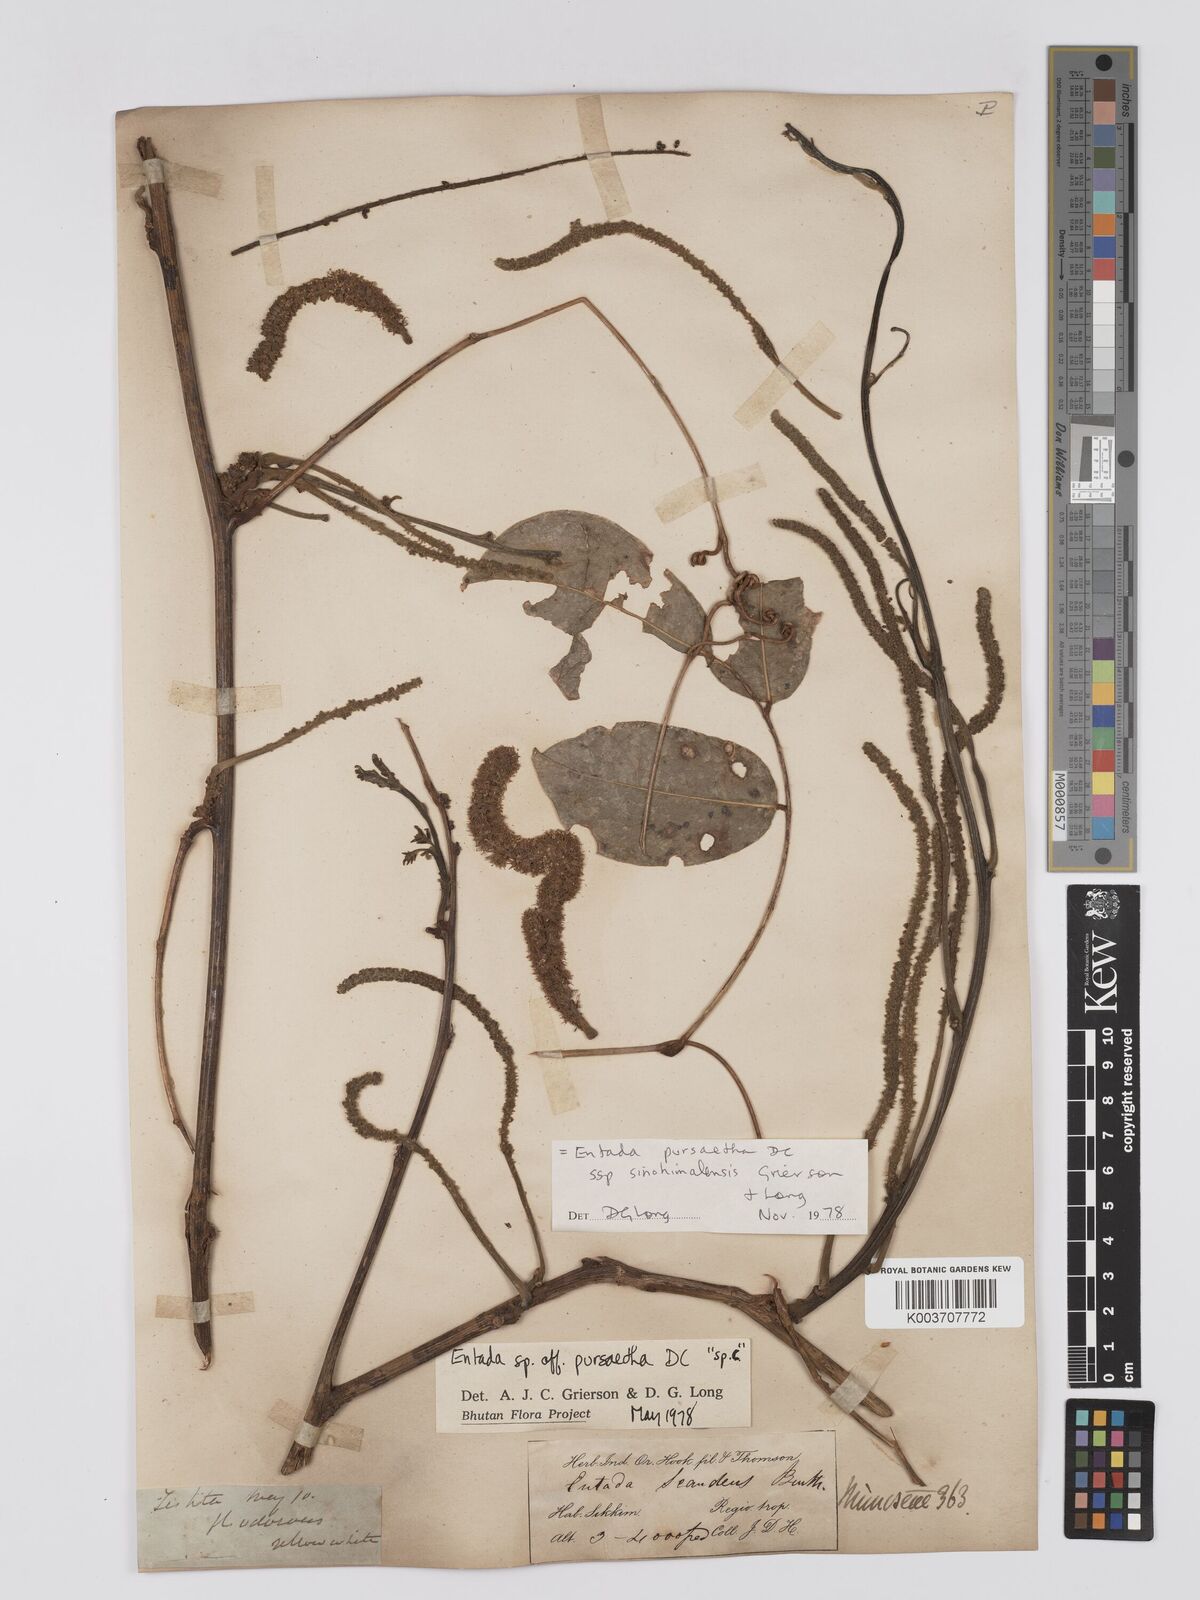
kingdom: Plantae
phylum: Tracheophyta
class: Magnoliopsida
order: Fabales
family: Fabaceae
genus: Entada
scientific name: Entada
